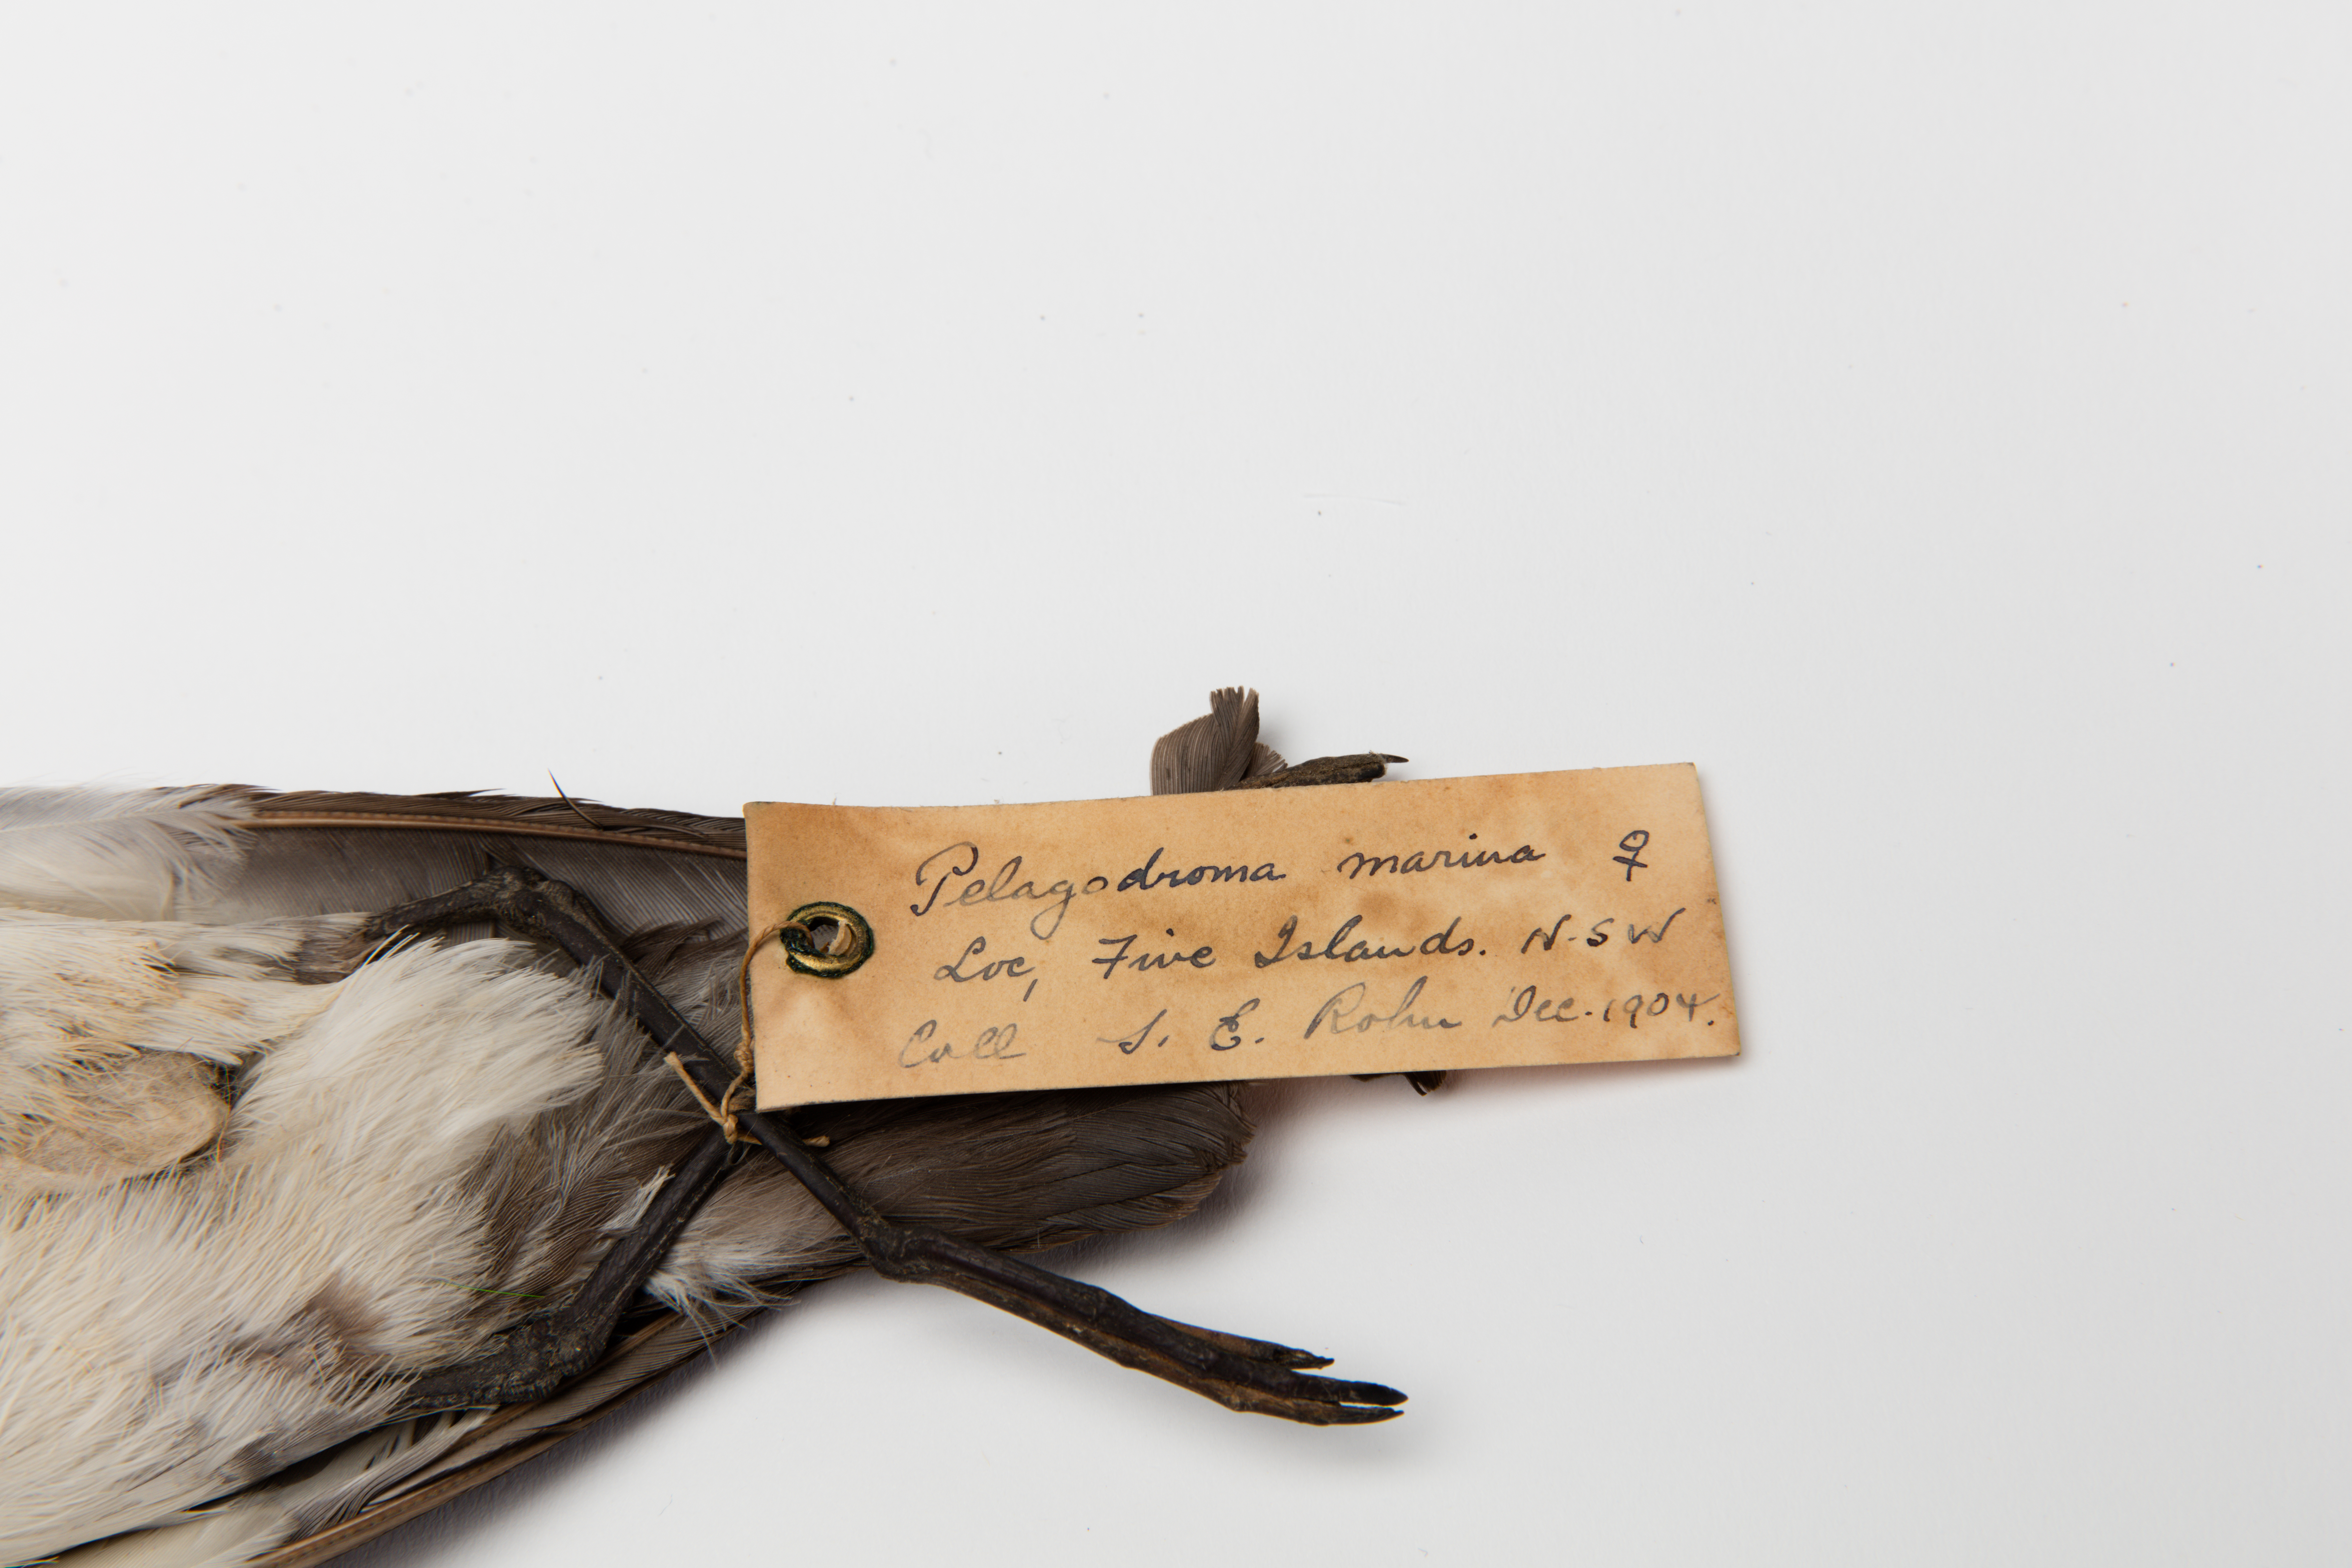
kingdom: Animalia
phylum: Chordata
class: Aves
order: Procellariiformes
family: Hydrobatidae
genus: Pelagodroma
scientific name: Pelagodroma marina
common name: White-faced storm-petrel
